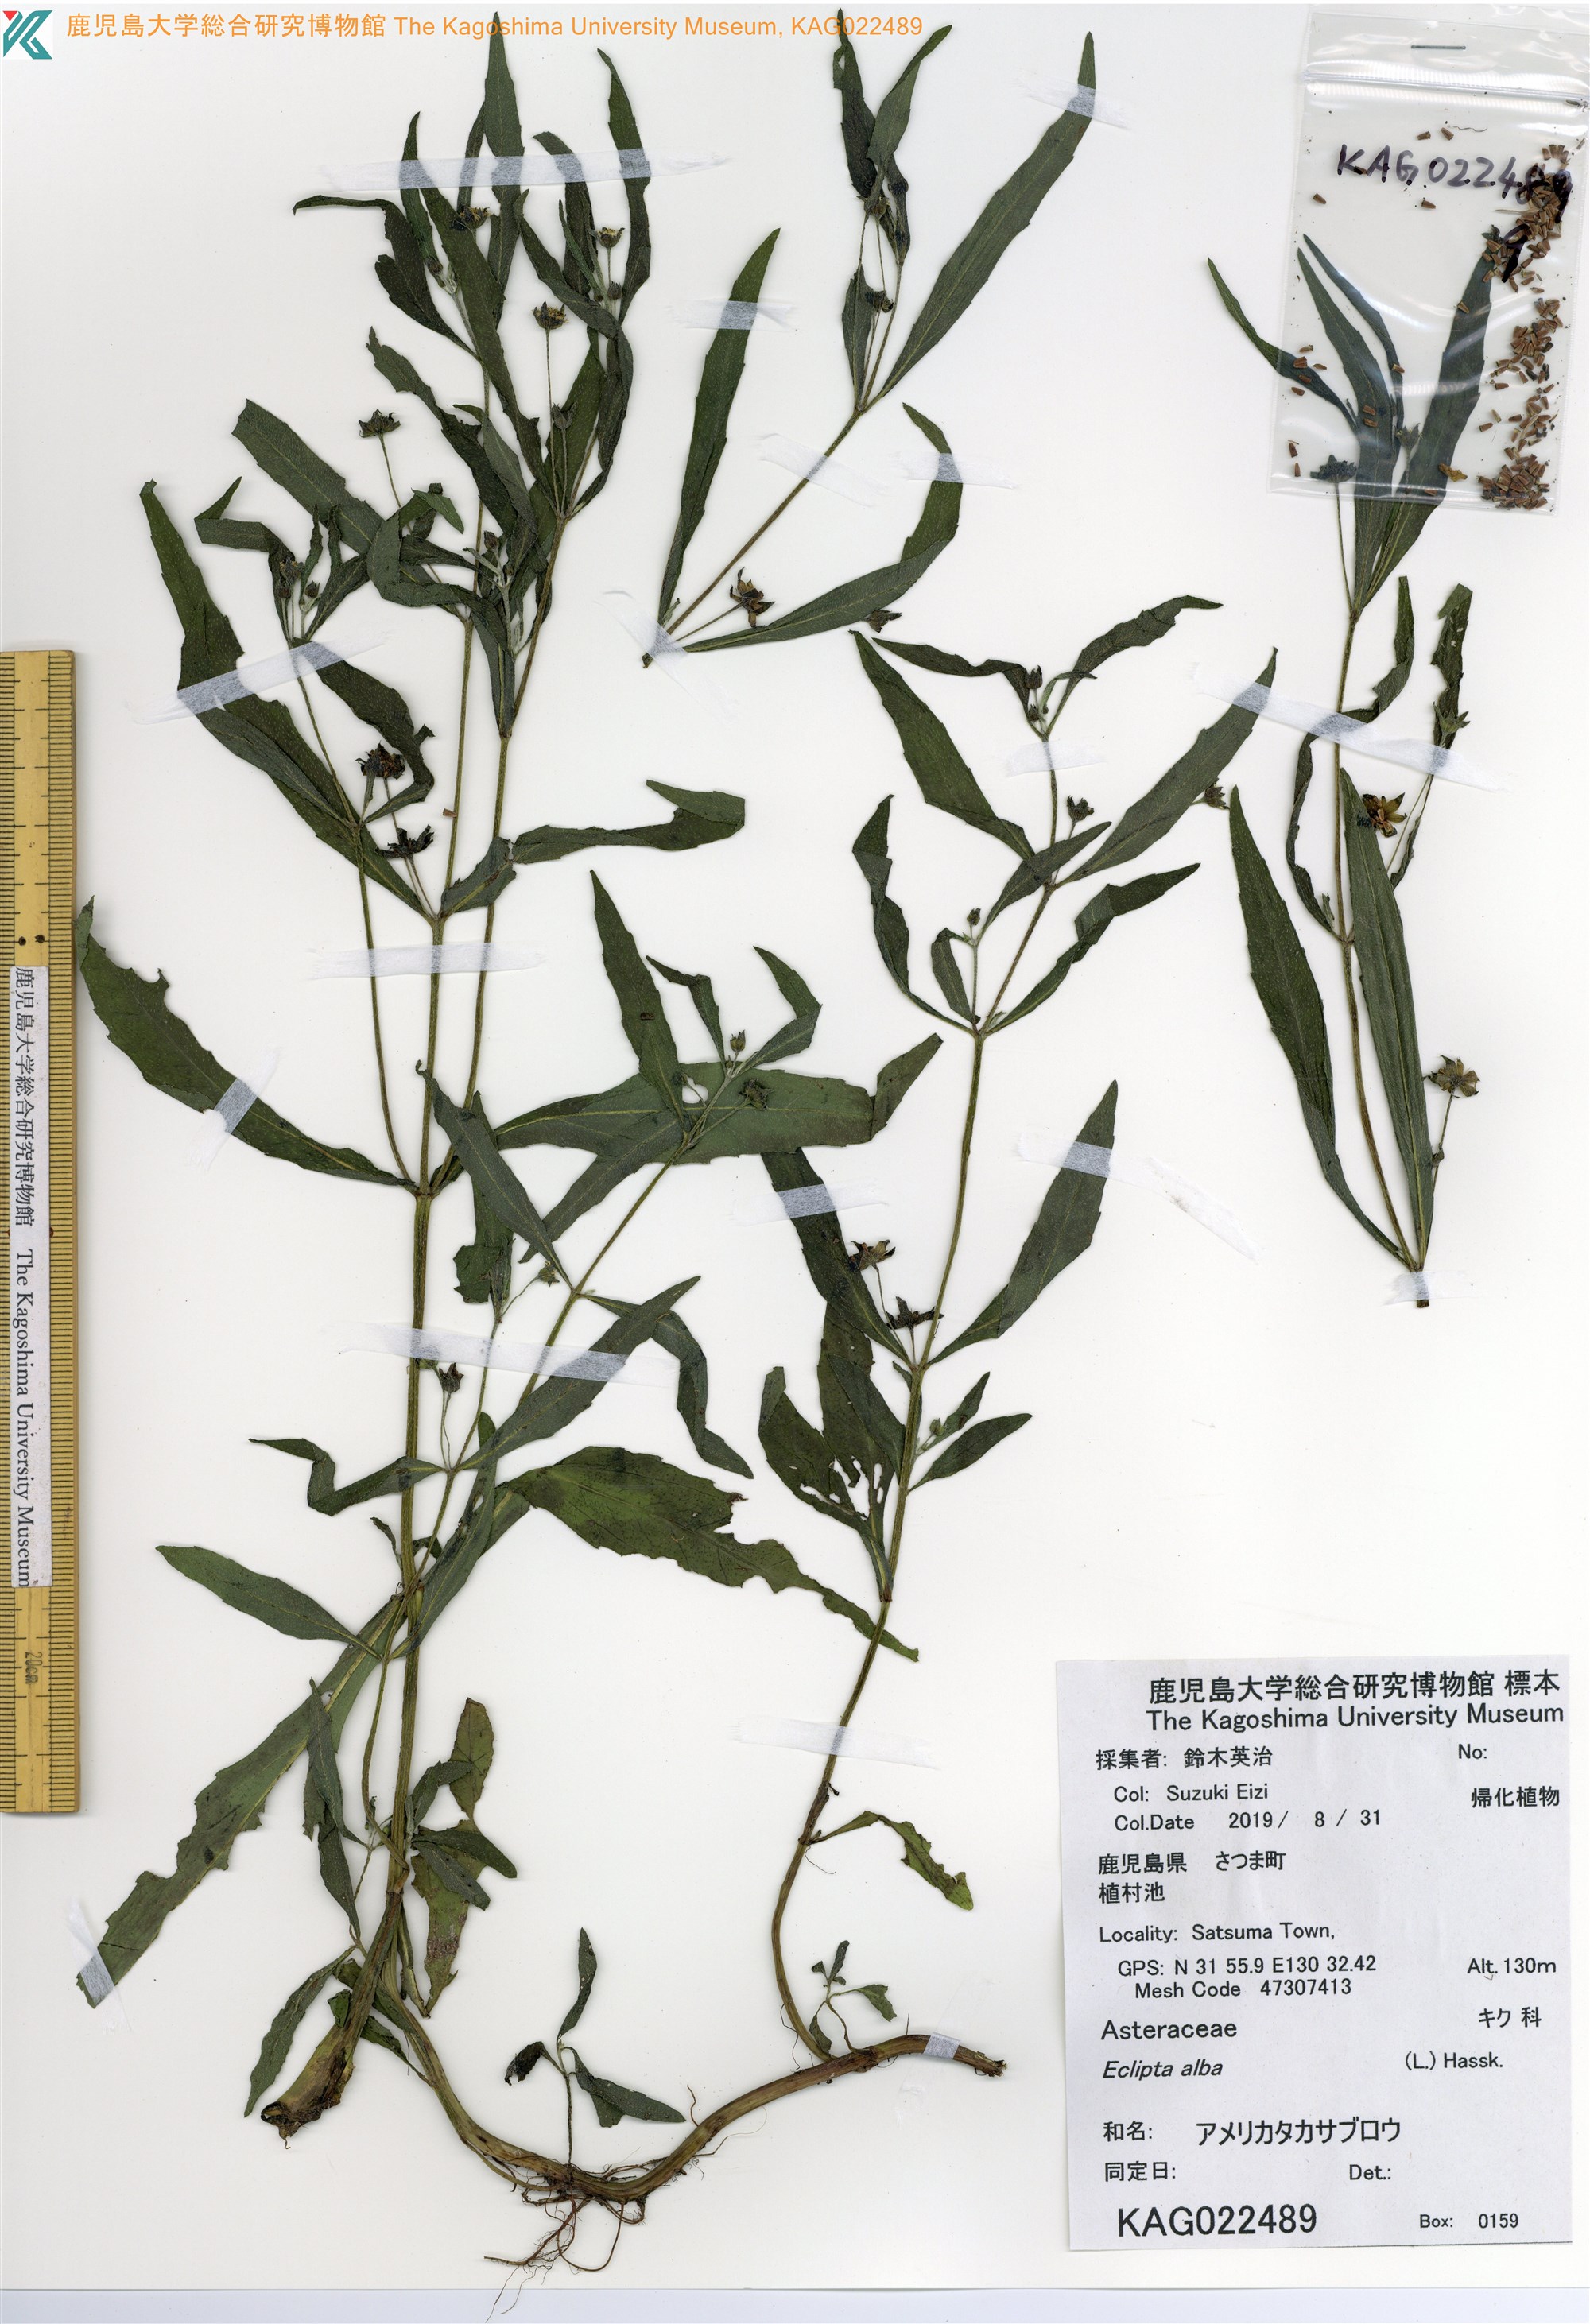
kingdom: Plantae
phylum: Tracheophyta
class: Magnoliopsida
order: Asterales
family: Asteraceae
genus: Eclipta
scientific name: Eclipta alba
